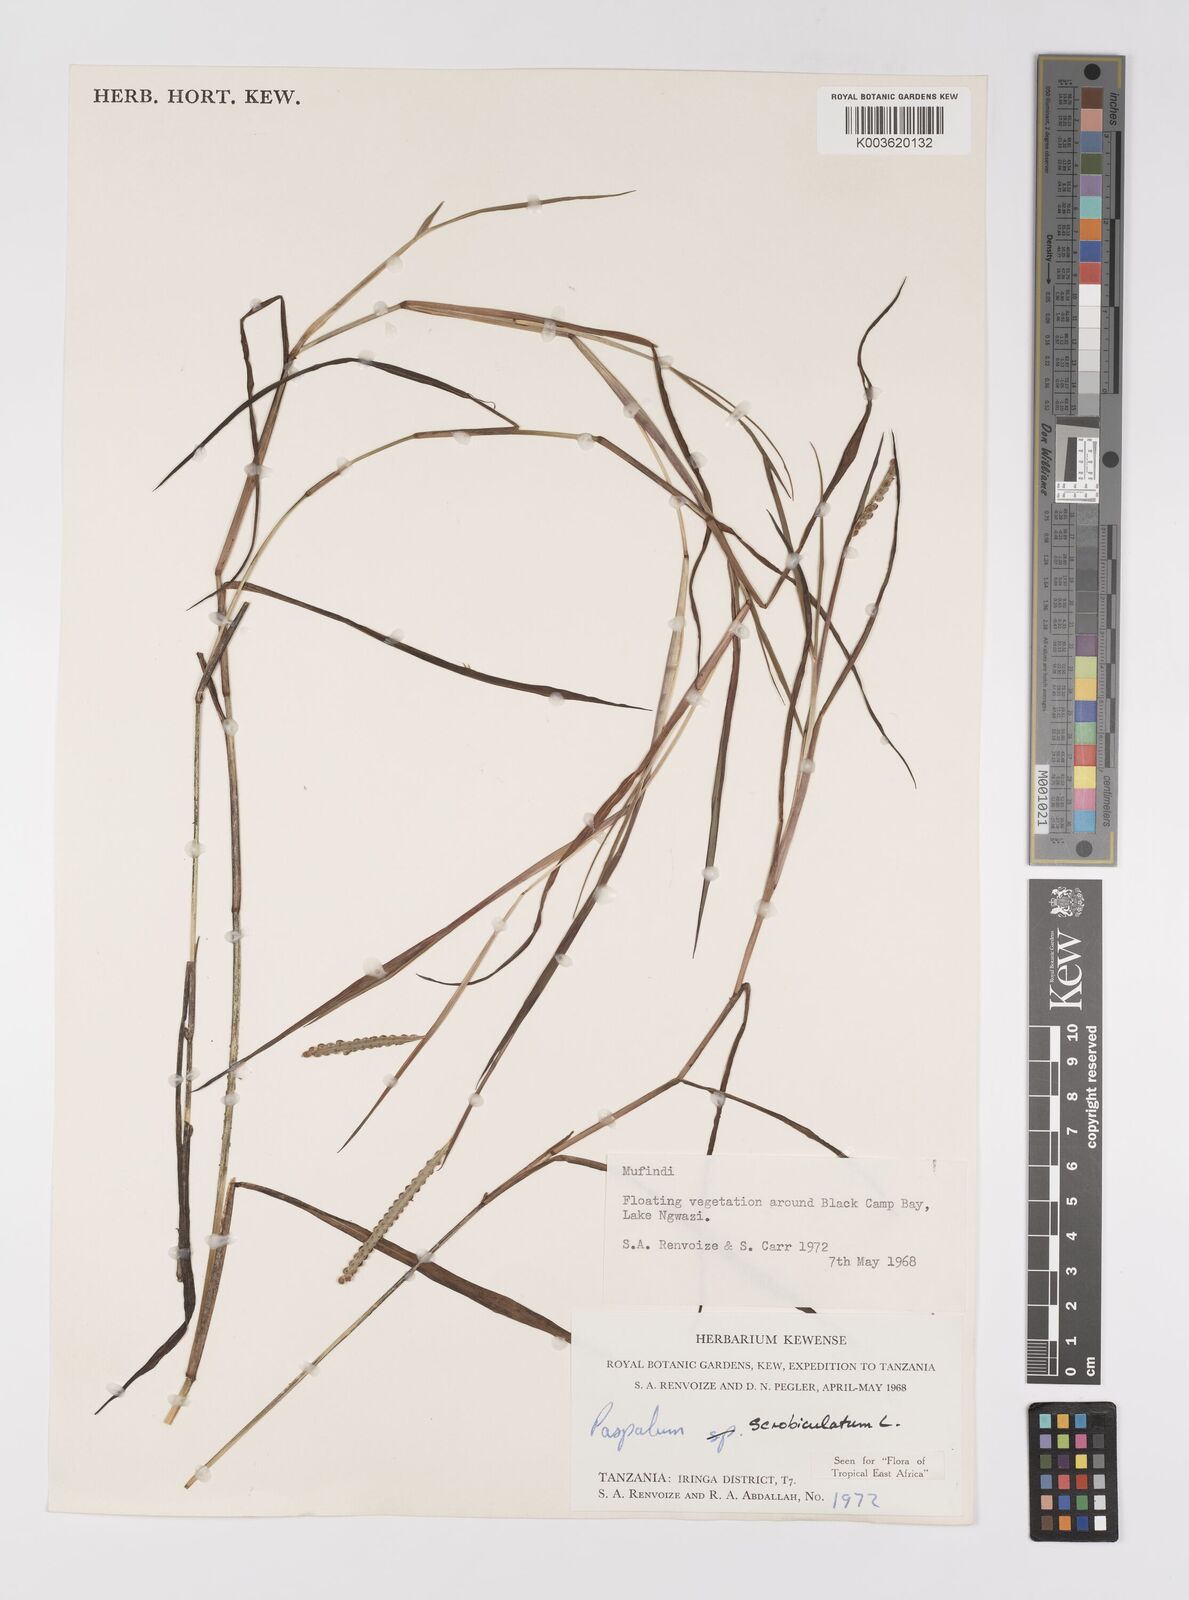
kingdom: Plantae
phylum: Tracheophyta
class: Liliopsida
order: Poales
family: Poaceae
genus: Paspalum
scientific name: Paspalum scrobiculatum
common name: Kodo millet
